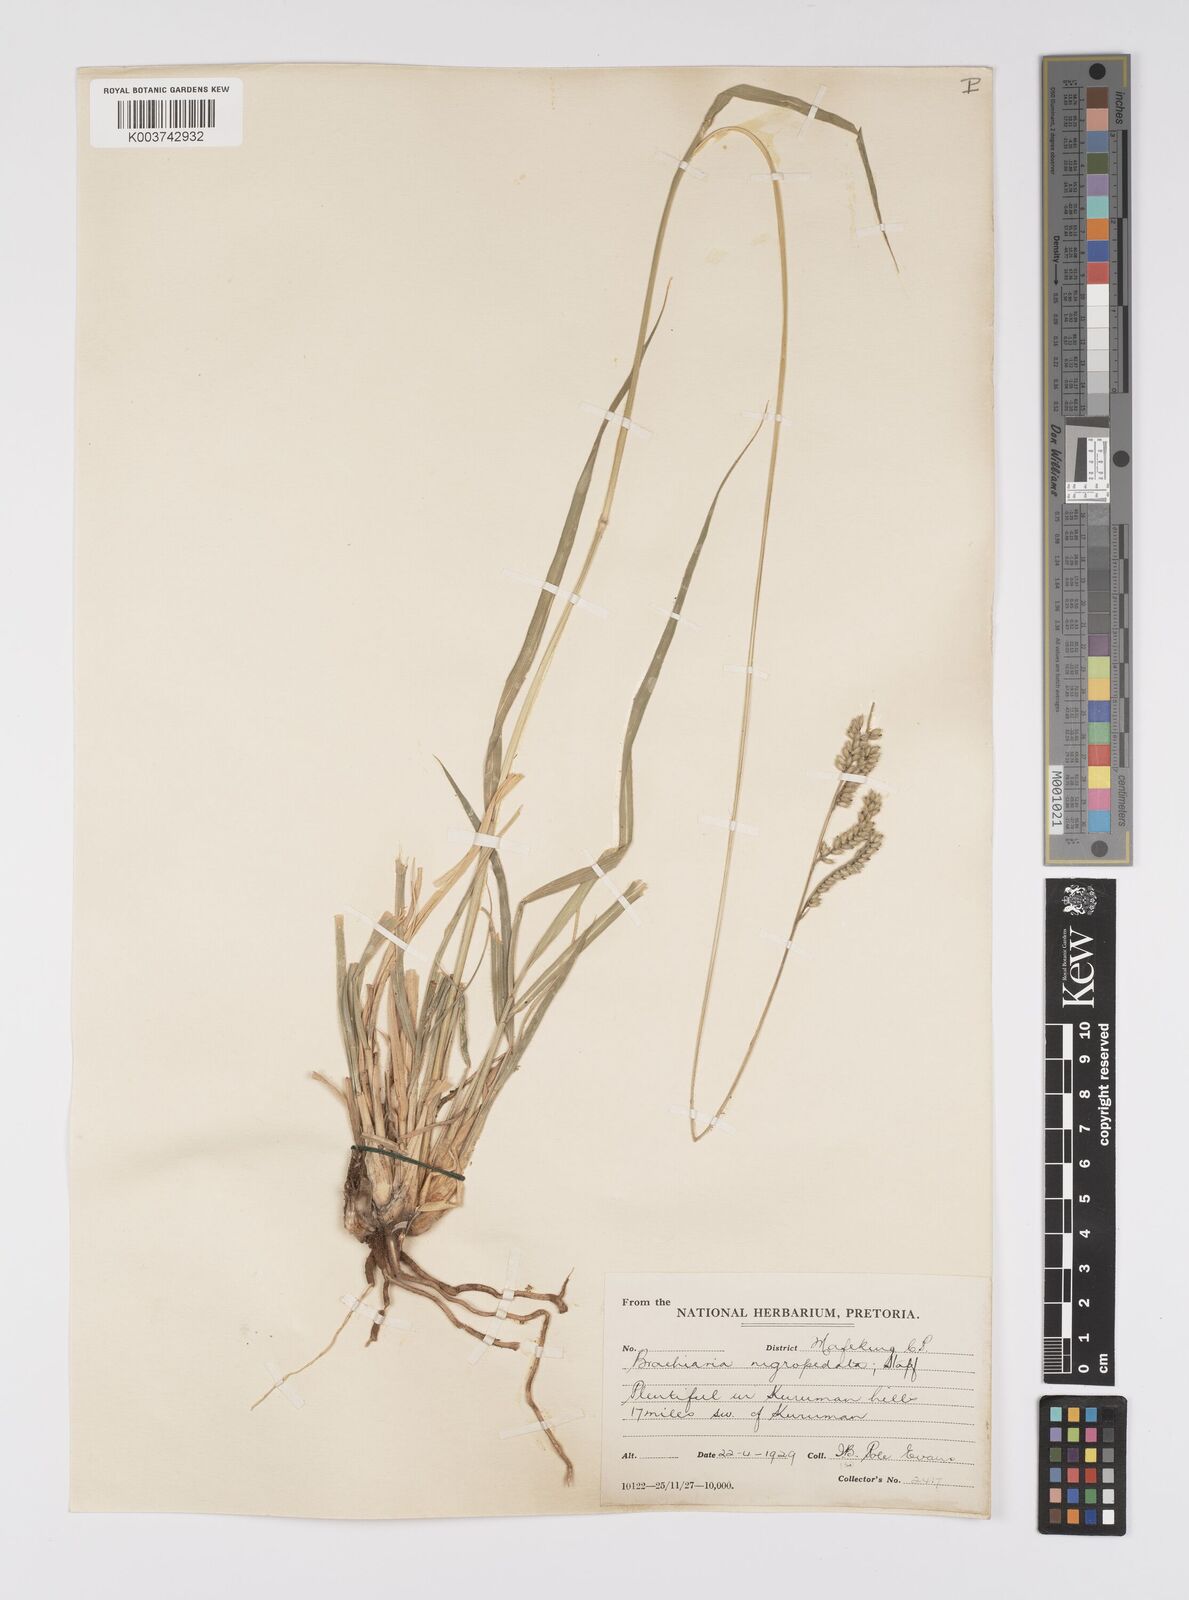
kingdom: Plantae
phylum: Tracheophyta
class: Liliopsida
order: Poales
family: Poaceae
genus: Urochloa
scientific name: Urochloa nigropedata
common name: Spotted signal grass
